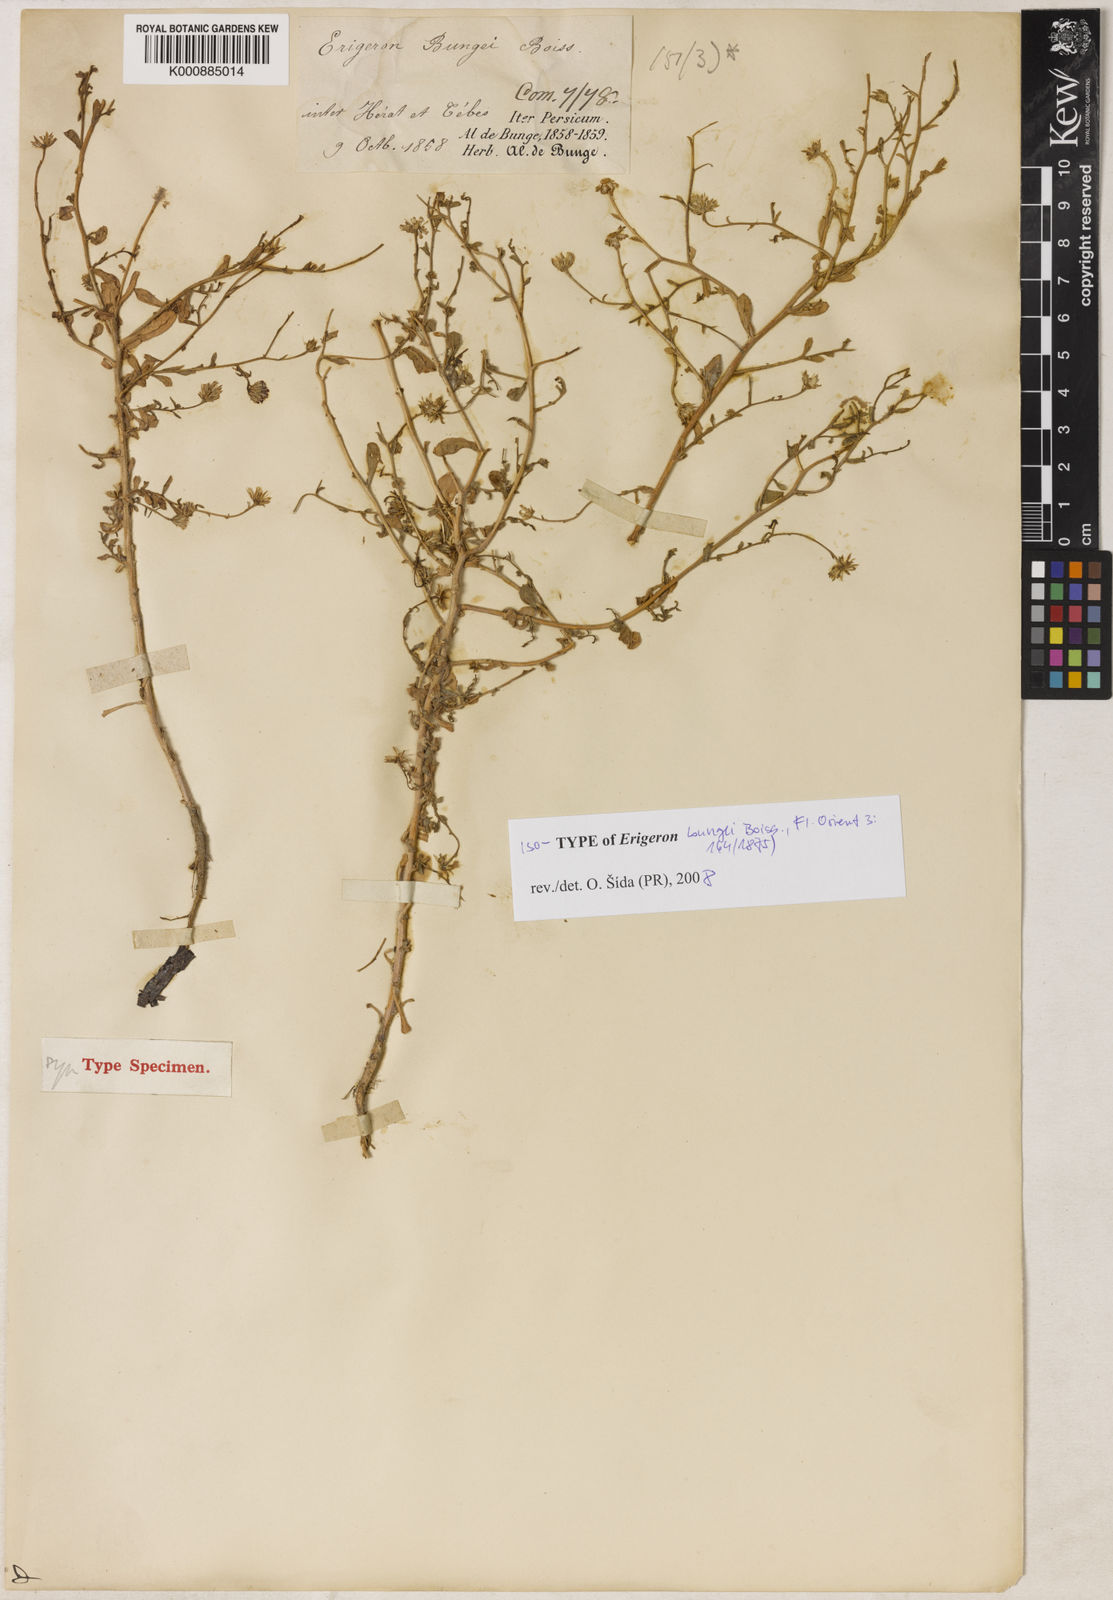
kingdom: Plantae
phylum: Tracheophyta
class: Magnoliopsida
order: Asterales
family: Asteraceae
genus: Chamaegeron
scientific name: Chamaegeron bungei
